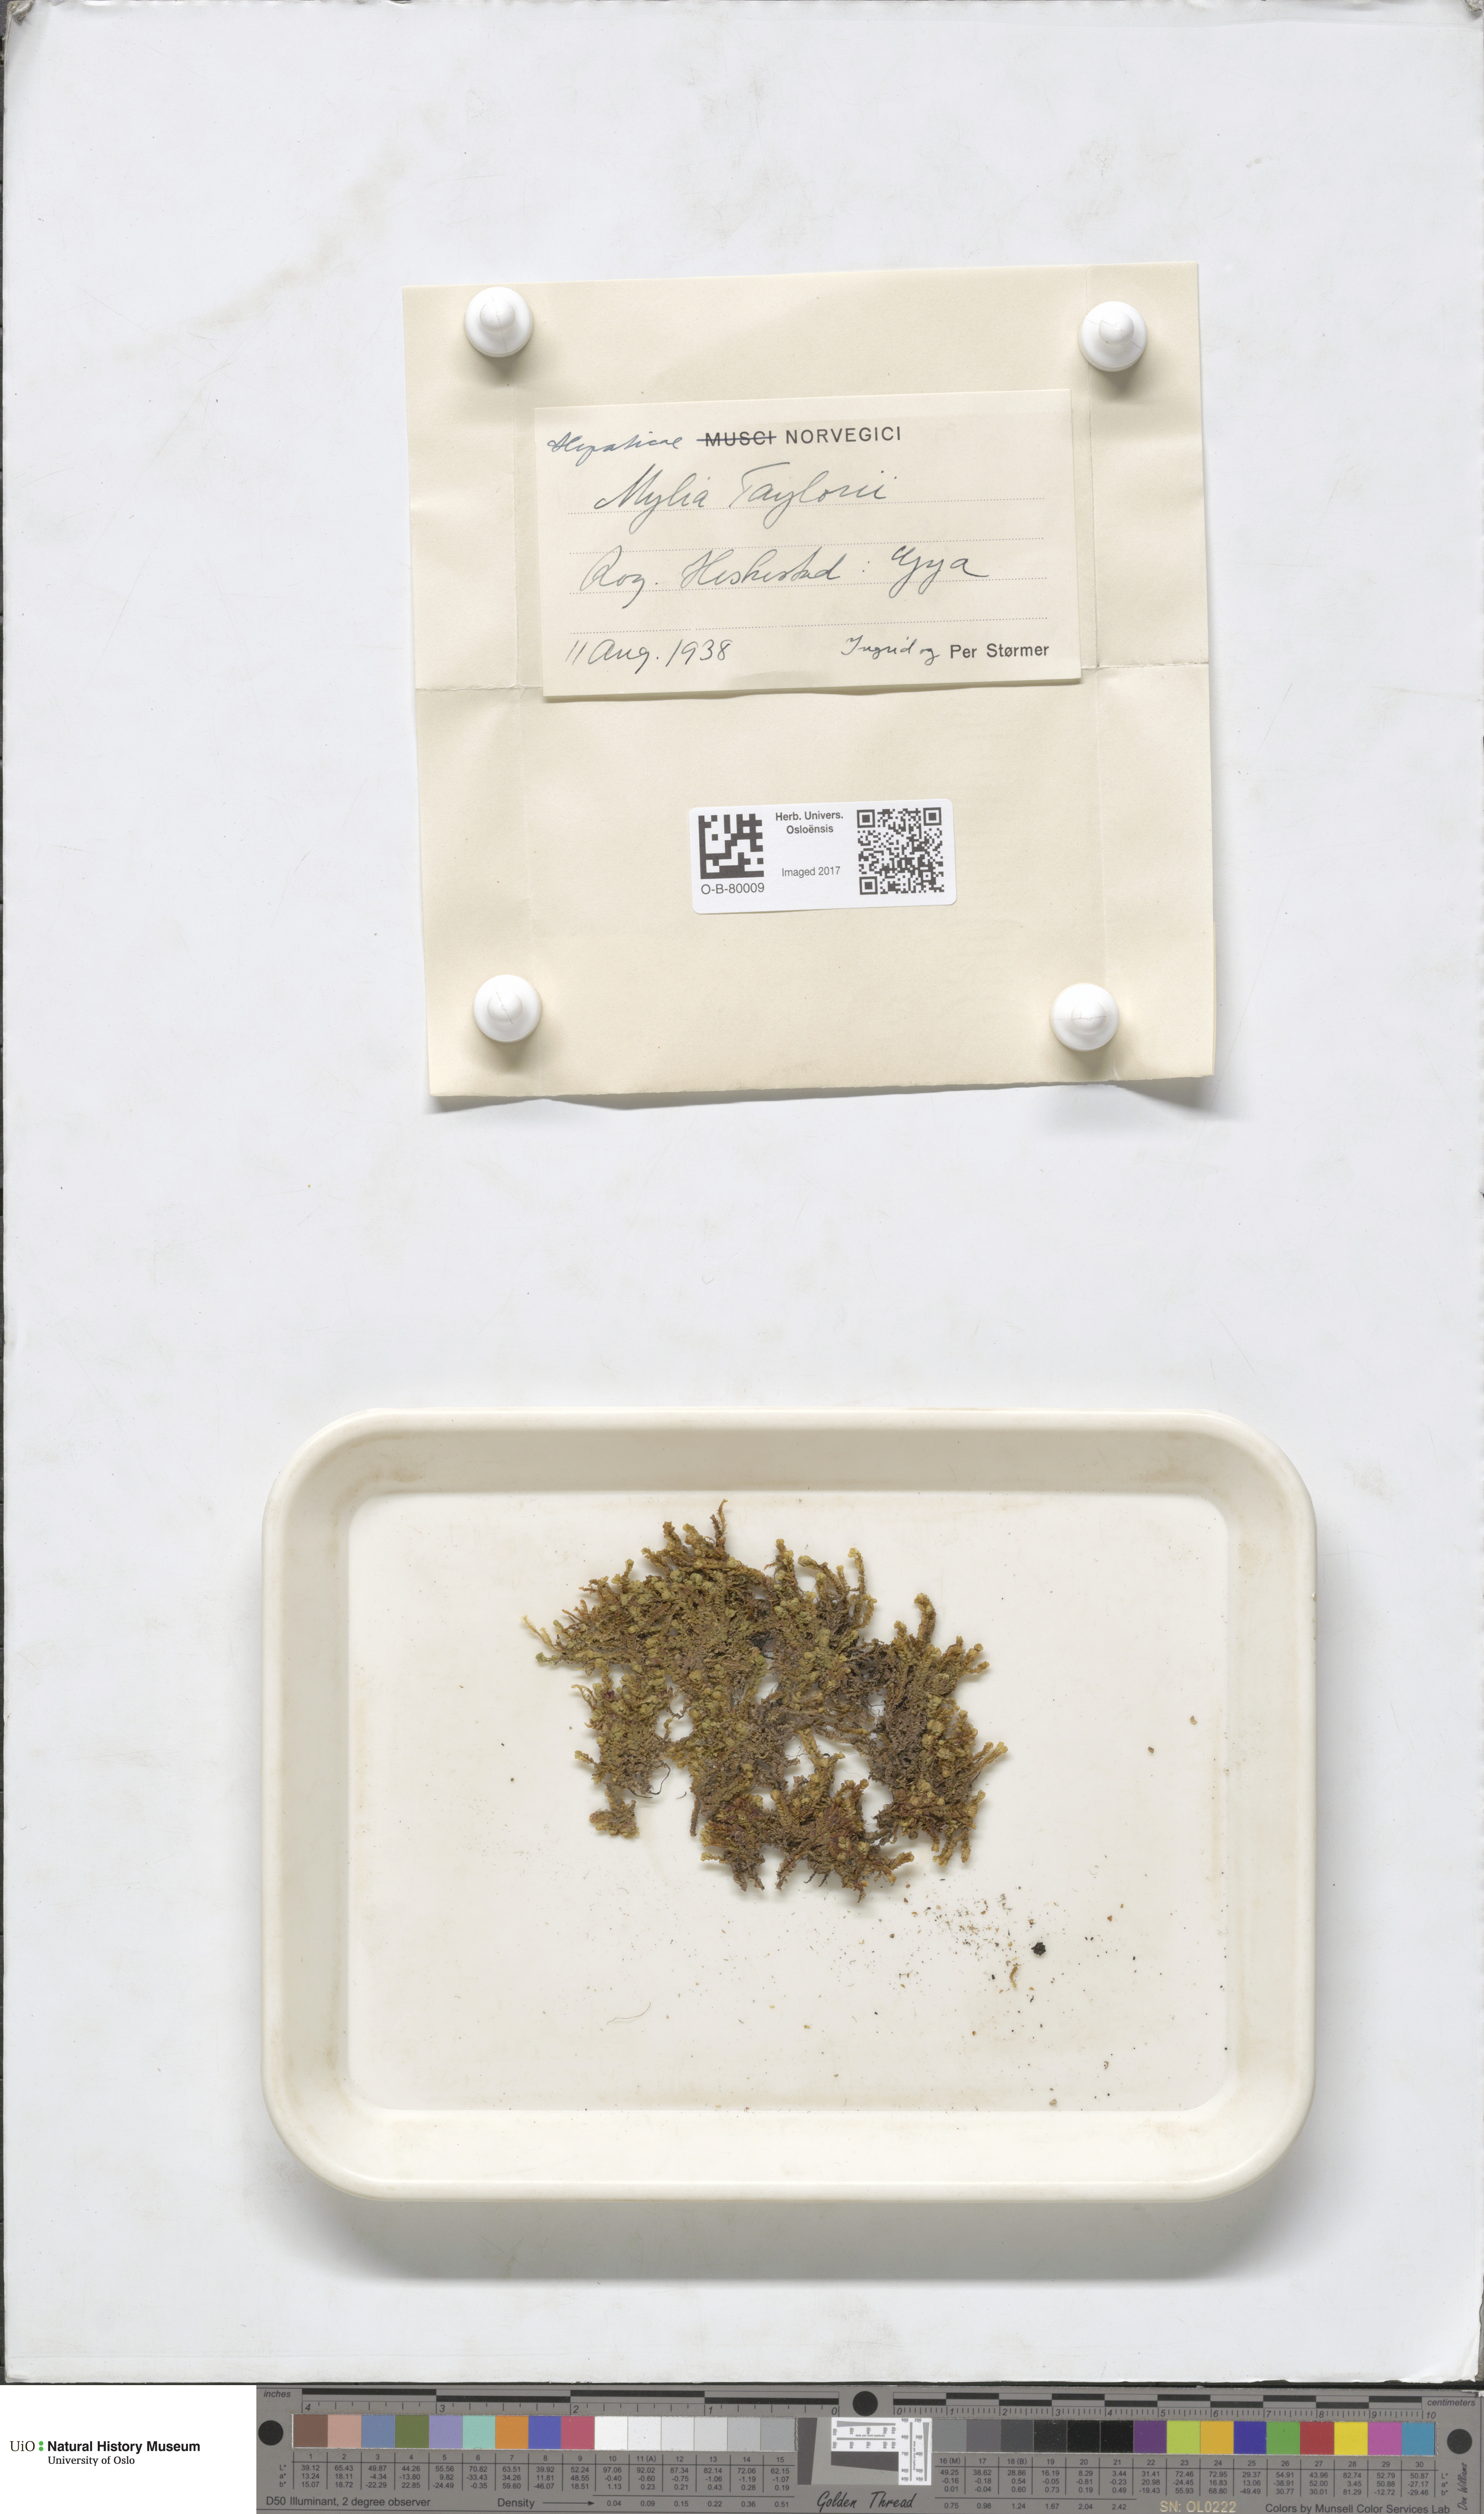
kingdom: Plantae
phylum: Marchantiophyta
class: Jungermanniopsida
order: Jungermanniales
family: Myliaceae
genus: Mylia
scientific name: Mylia taylorii
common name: Taylor s flapwort
